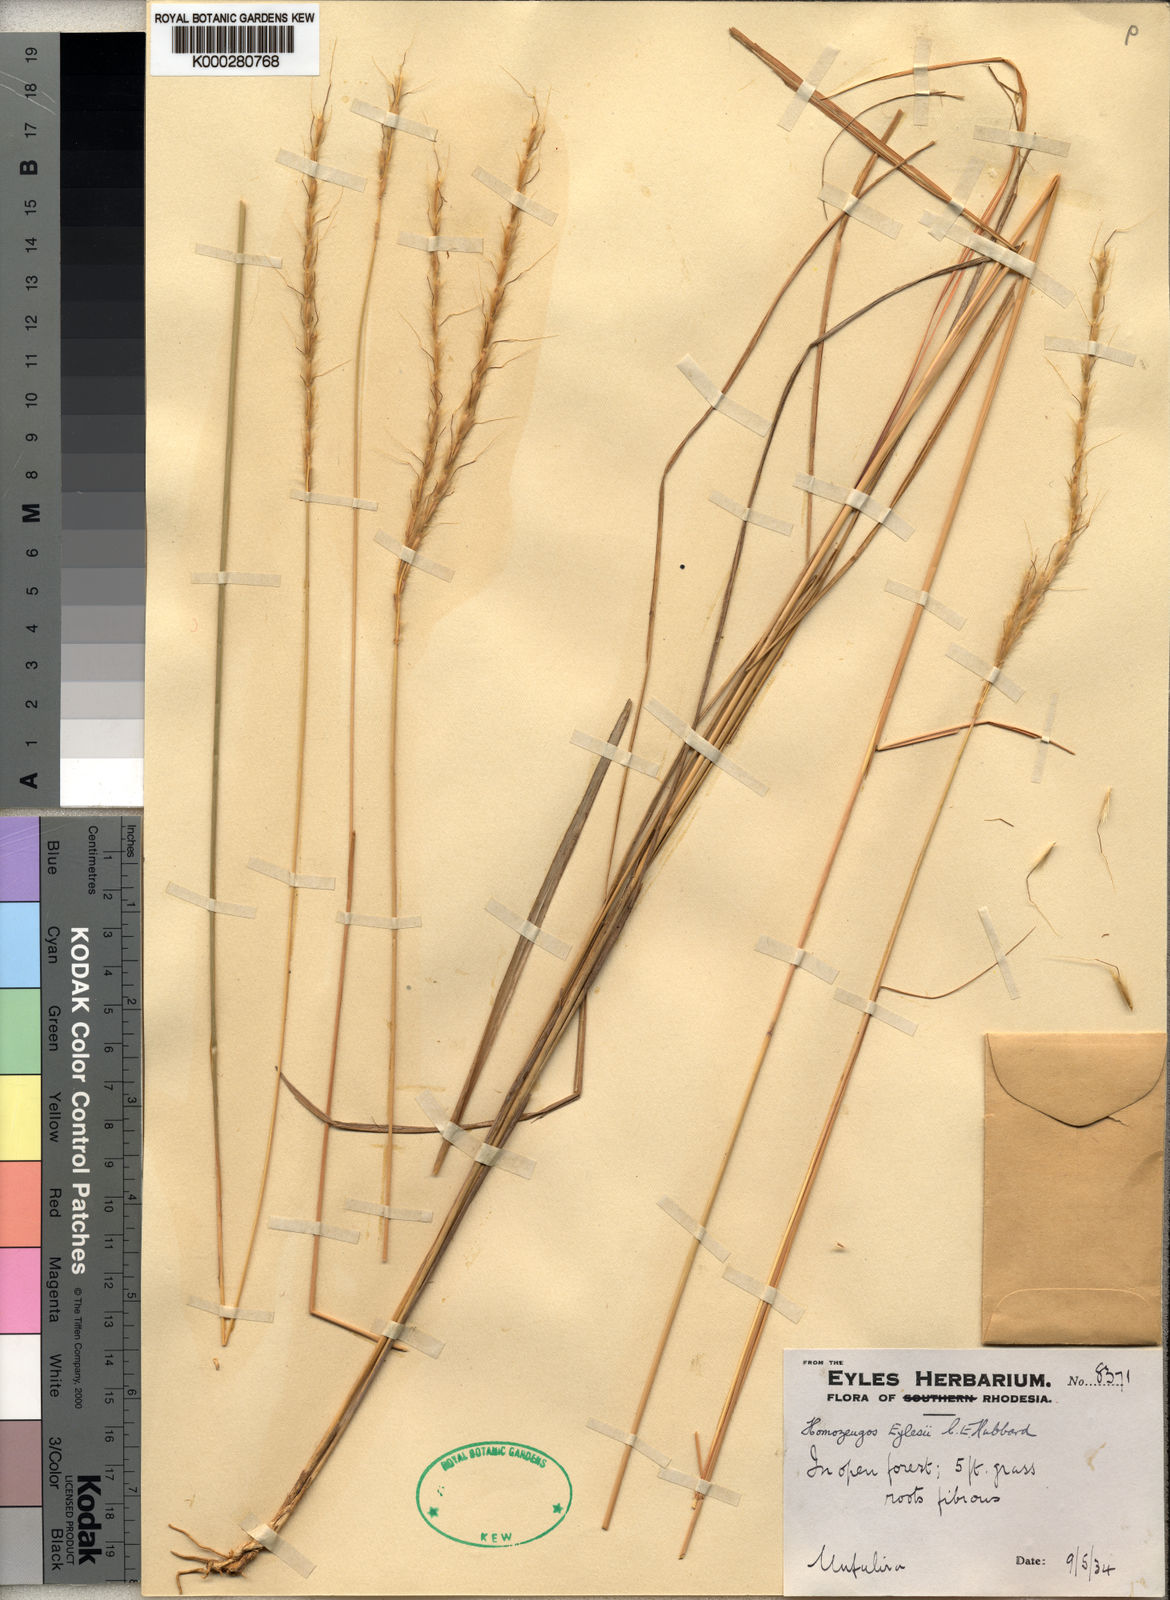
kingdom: Plantae
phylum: Tracheophyta
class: Liliopsida
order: Poales
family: Poaceae
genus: Homozeugos
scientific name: Homozeugos eylesii
